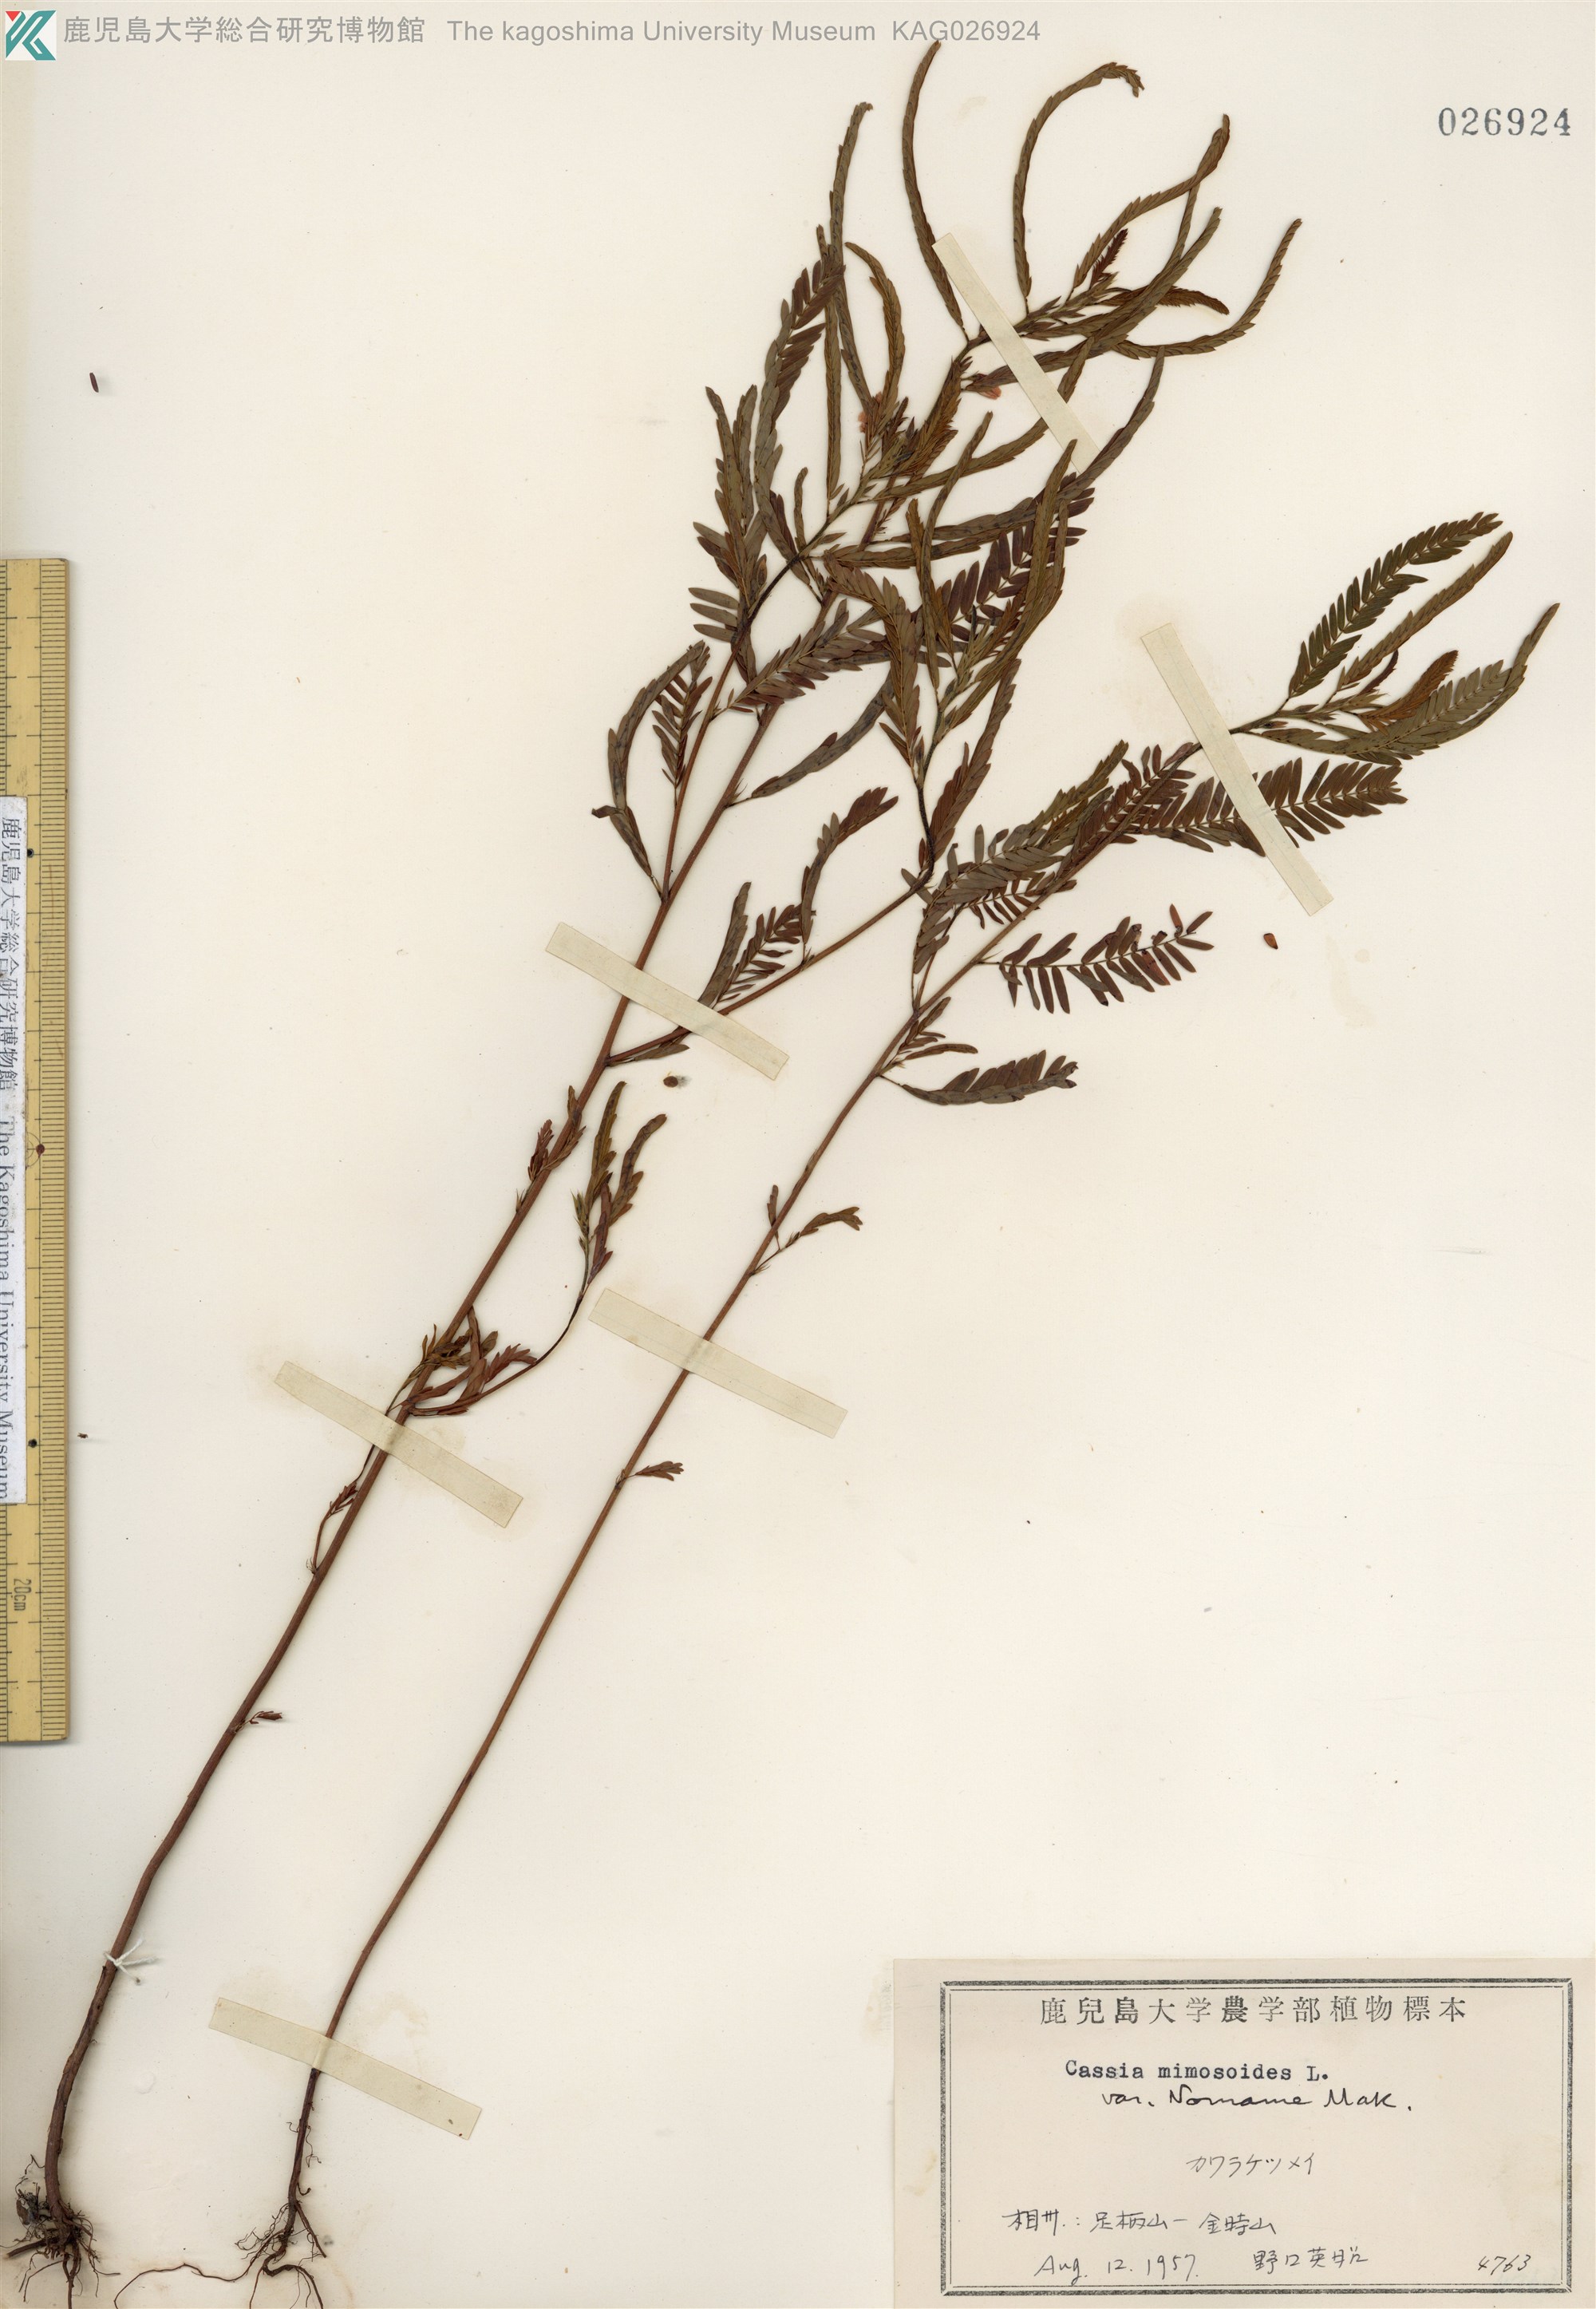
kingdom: Plantae
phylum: Tracheophyta
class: Magnoliopsida
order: Fabales
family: Fabaceae
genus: Chamaecrista
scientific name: Chamaecrista nomame
